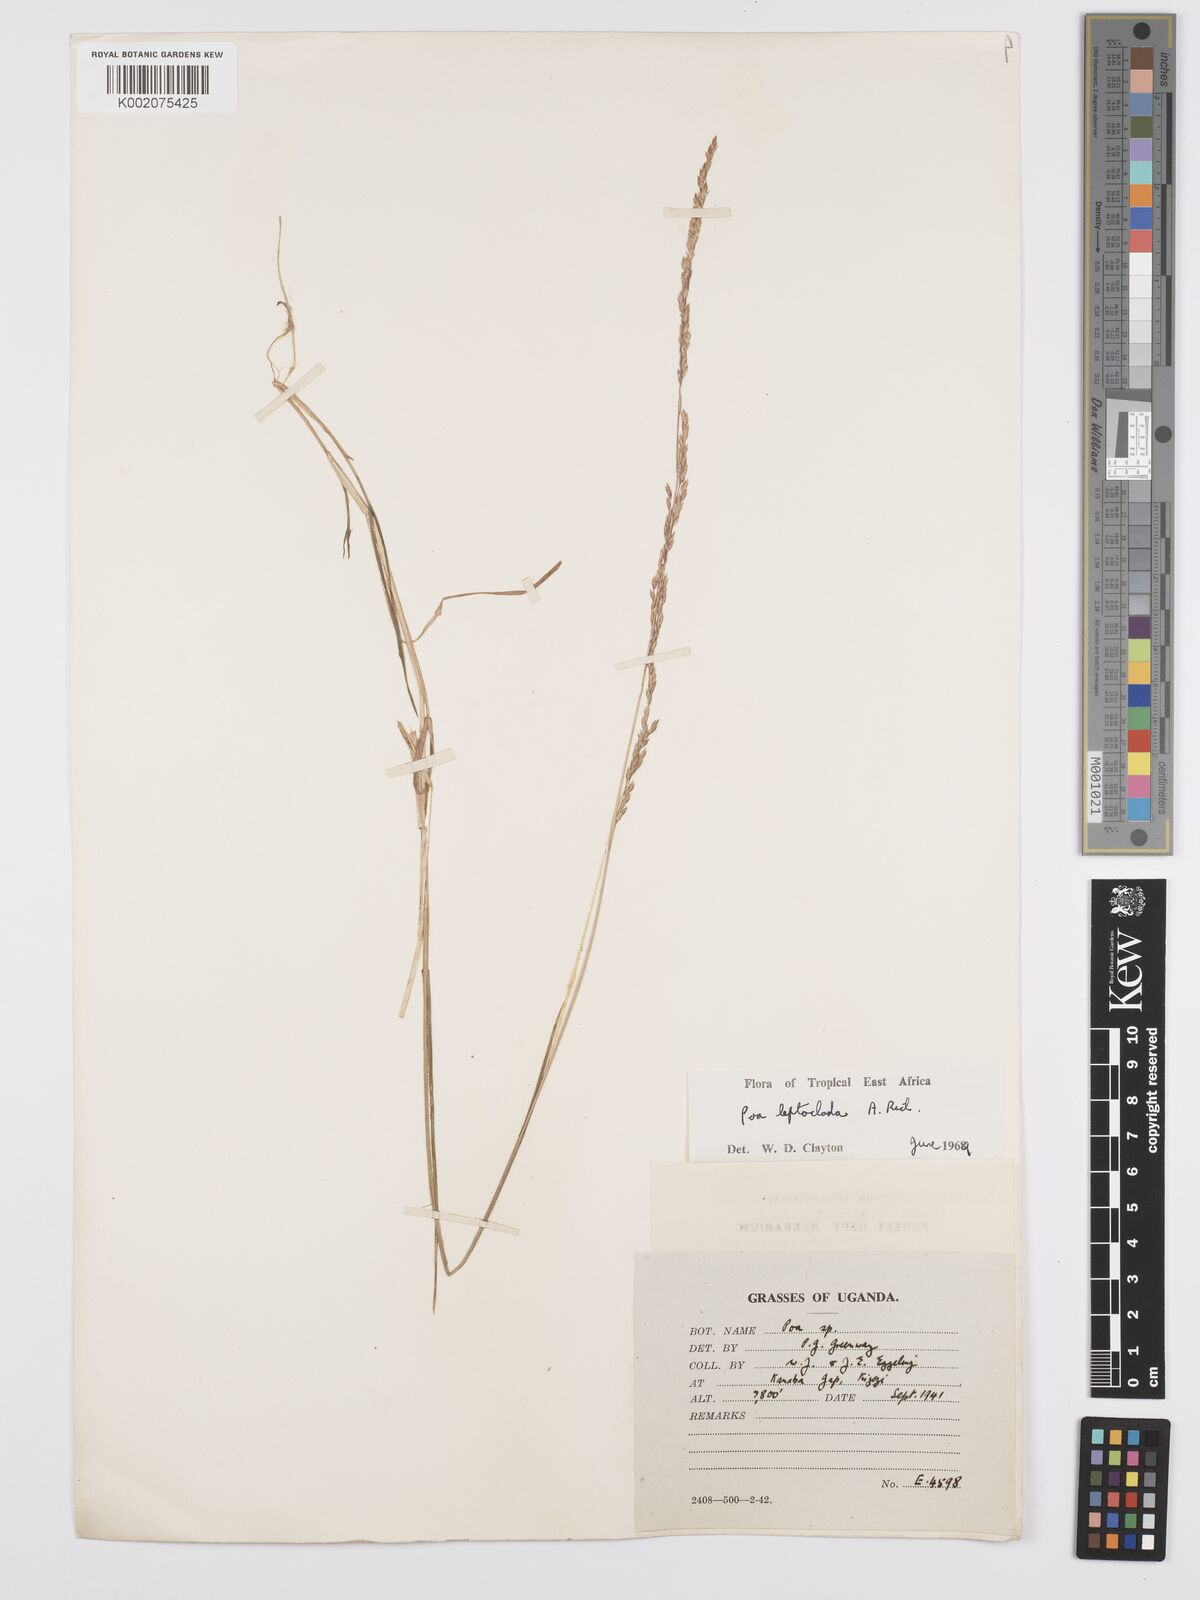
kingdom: Plantae
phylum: Tracheophyta
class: Liliopsida
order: Poales
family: Poaceae
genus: Poa
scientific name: Poa
